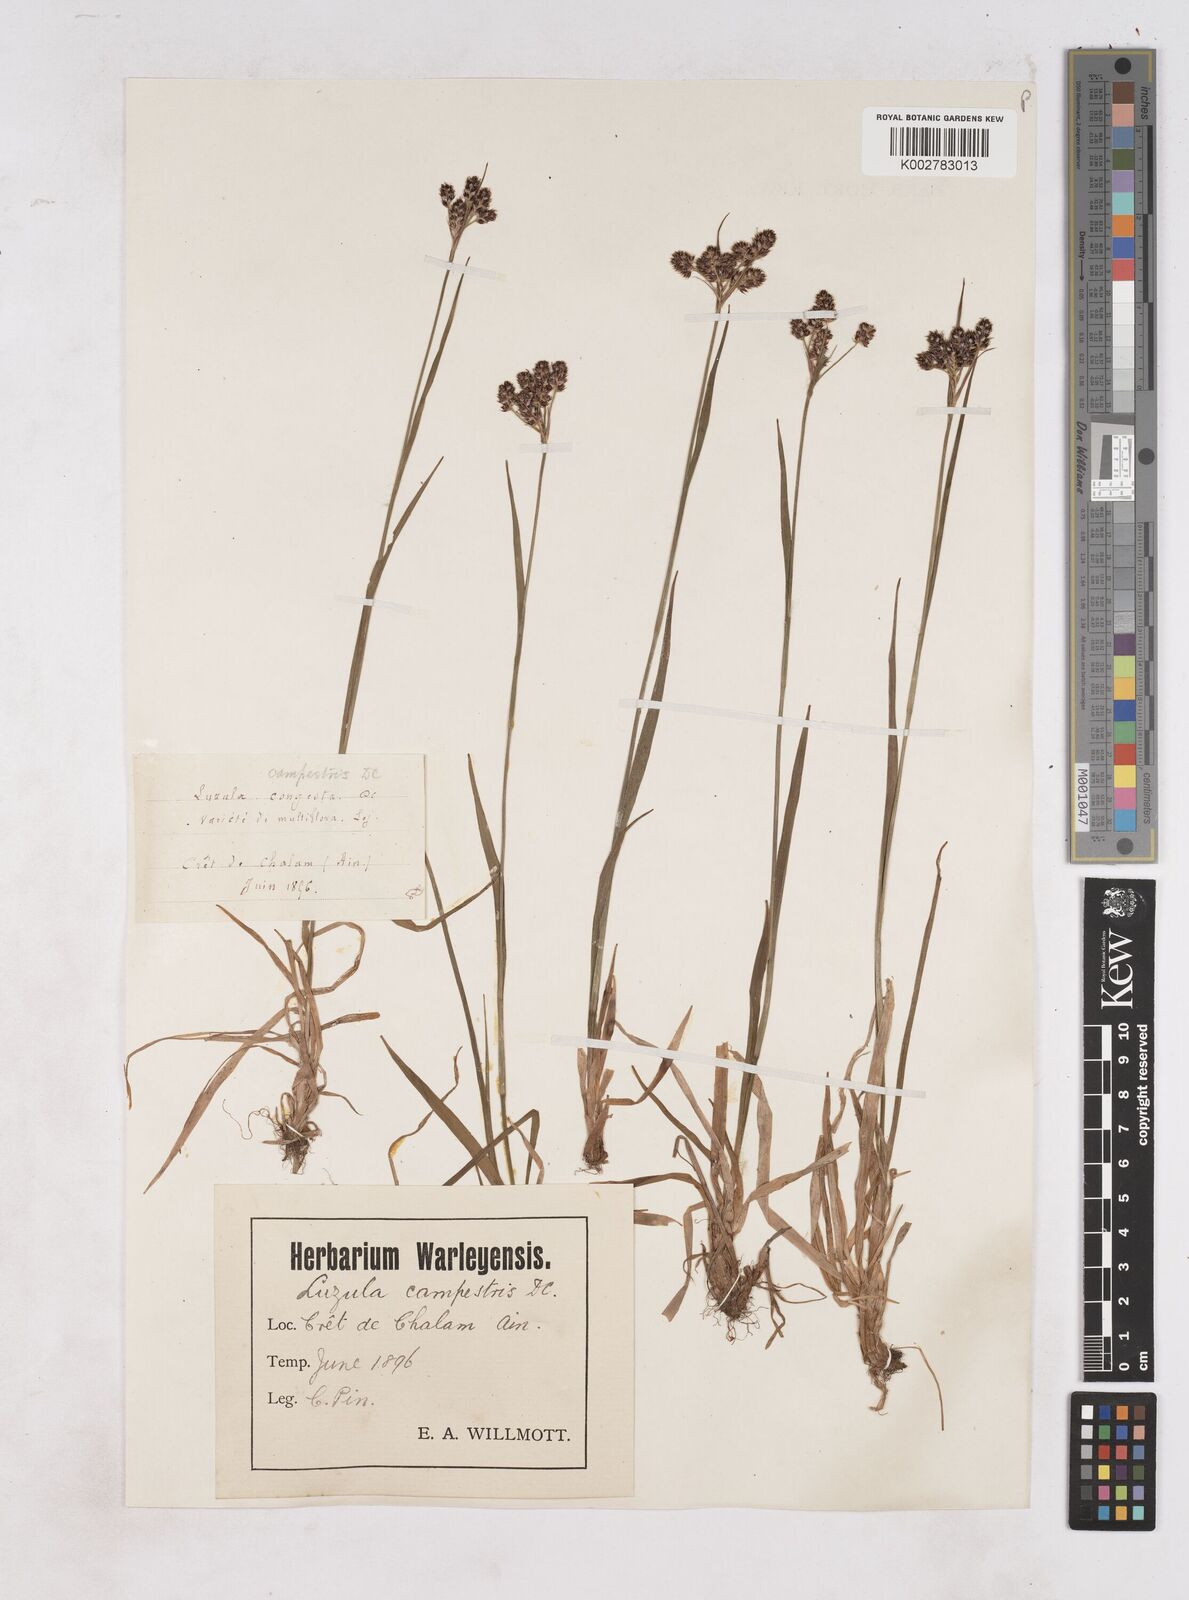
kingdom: Plantae
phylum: Tracheophyta
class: Liliopsida
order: Poales
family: Juncaceae
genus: Luzula
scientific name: Luzula campestris
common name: Field wood-rush
